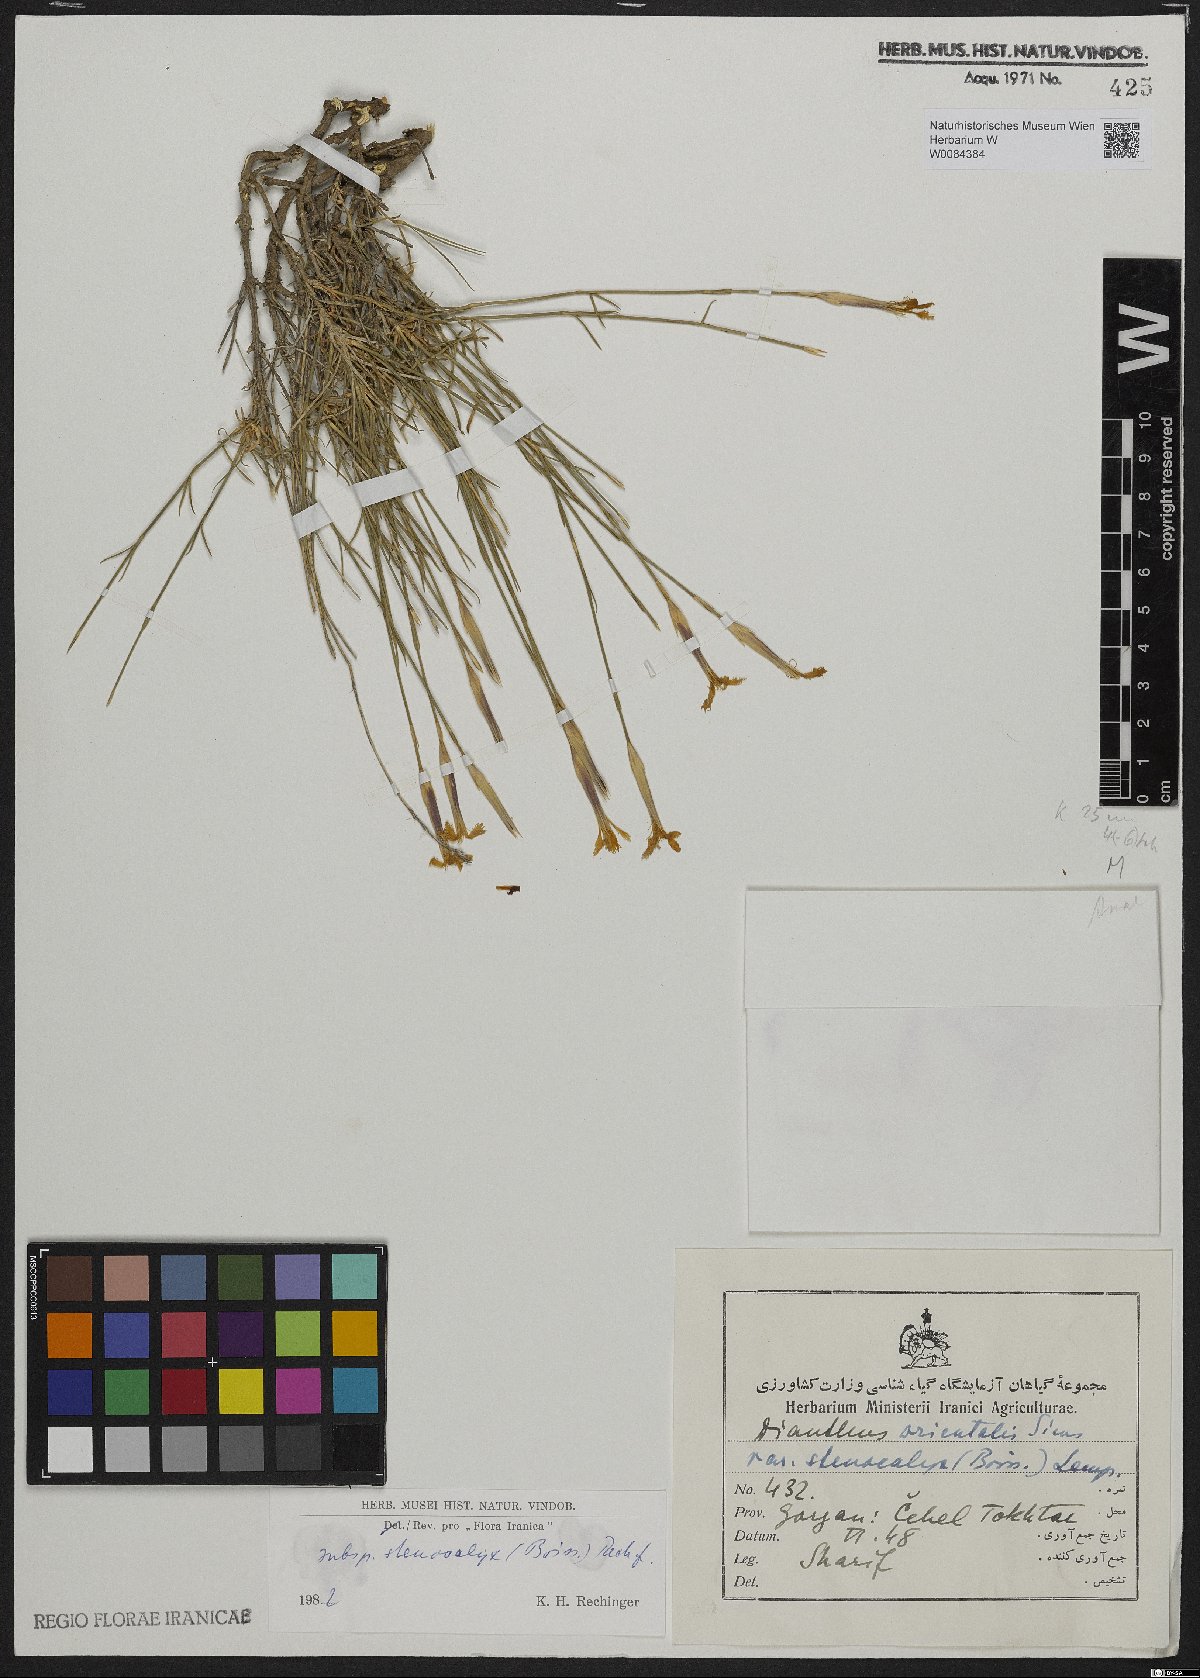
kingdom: Plantae
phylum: Tracheophyta
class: Magnoliopsida
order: Caryophyllales
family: Caryophyllaceae
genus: Dianthus
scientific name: Dianthus orientalis
